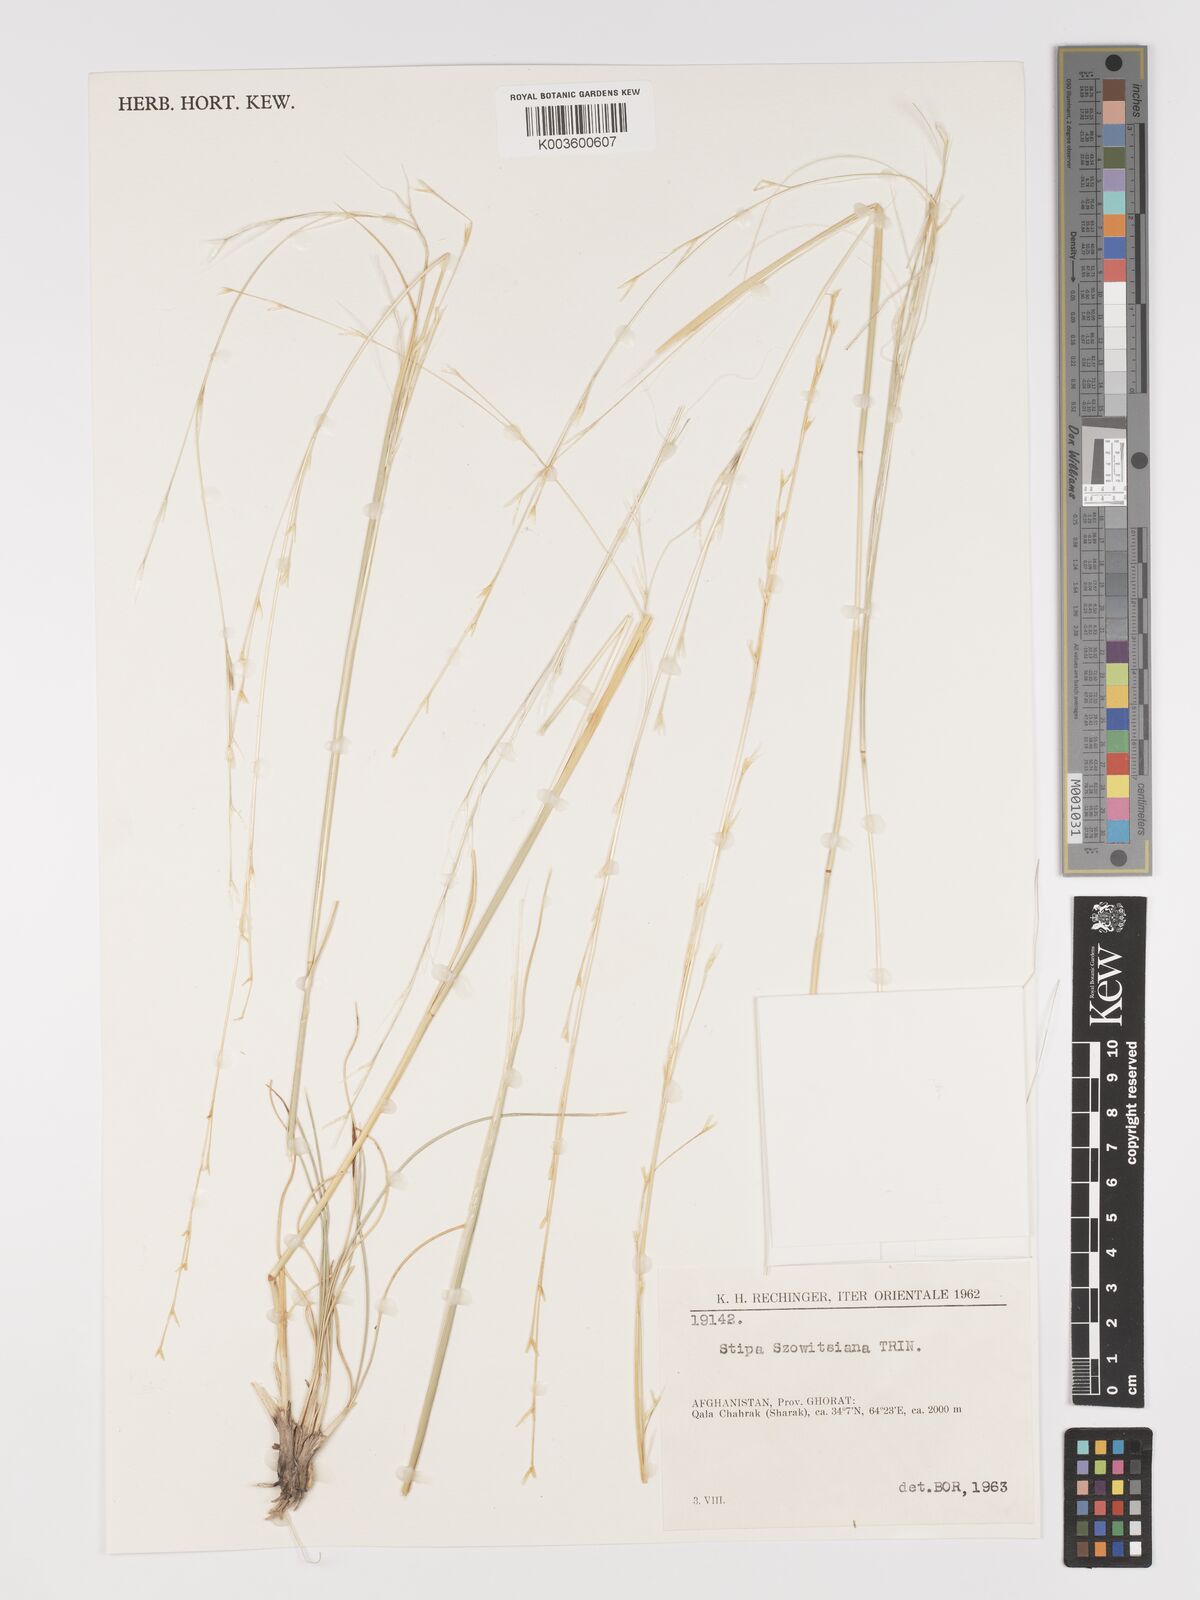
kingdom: Plantae
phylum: Tracheophyta
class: Liliopsida
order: Poales
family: Poaceae
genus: Stipa
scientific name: Stipa barbata
